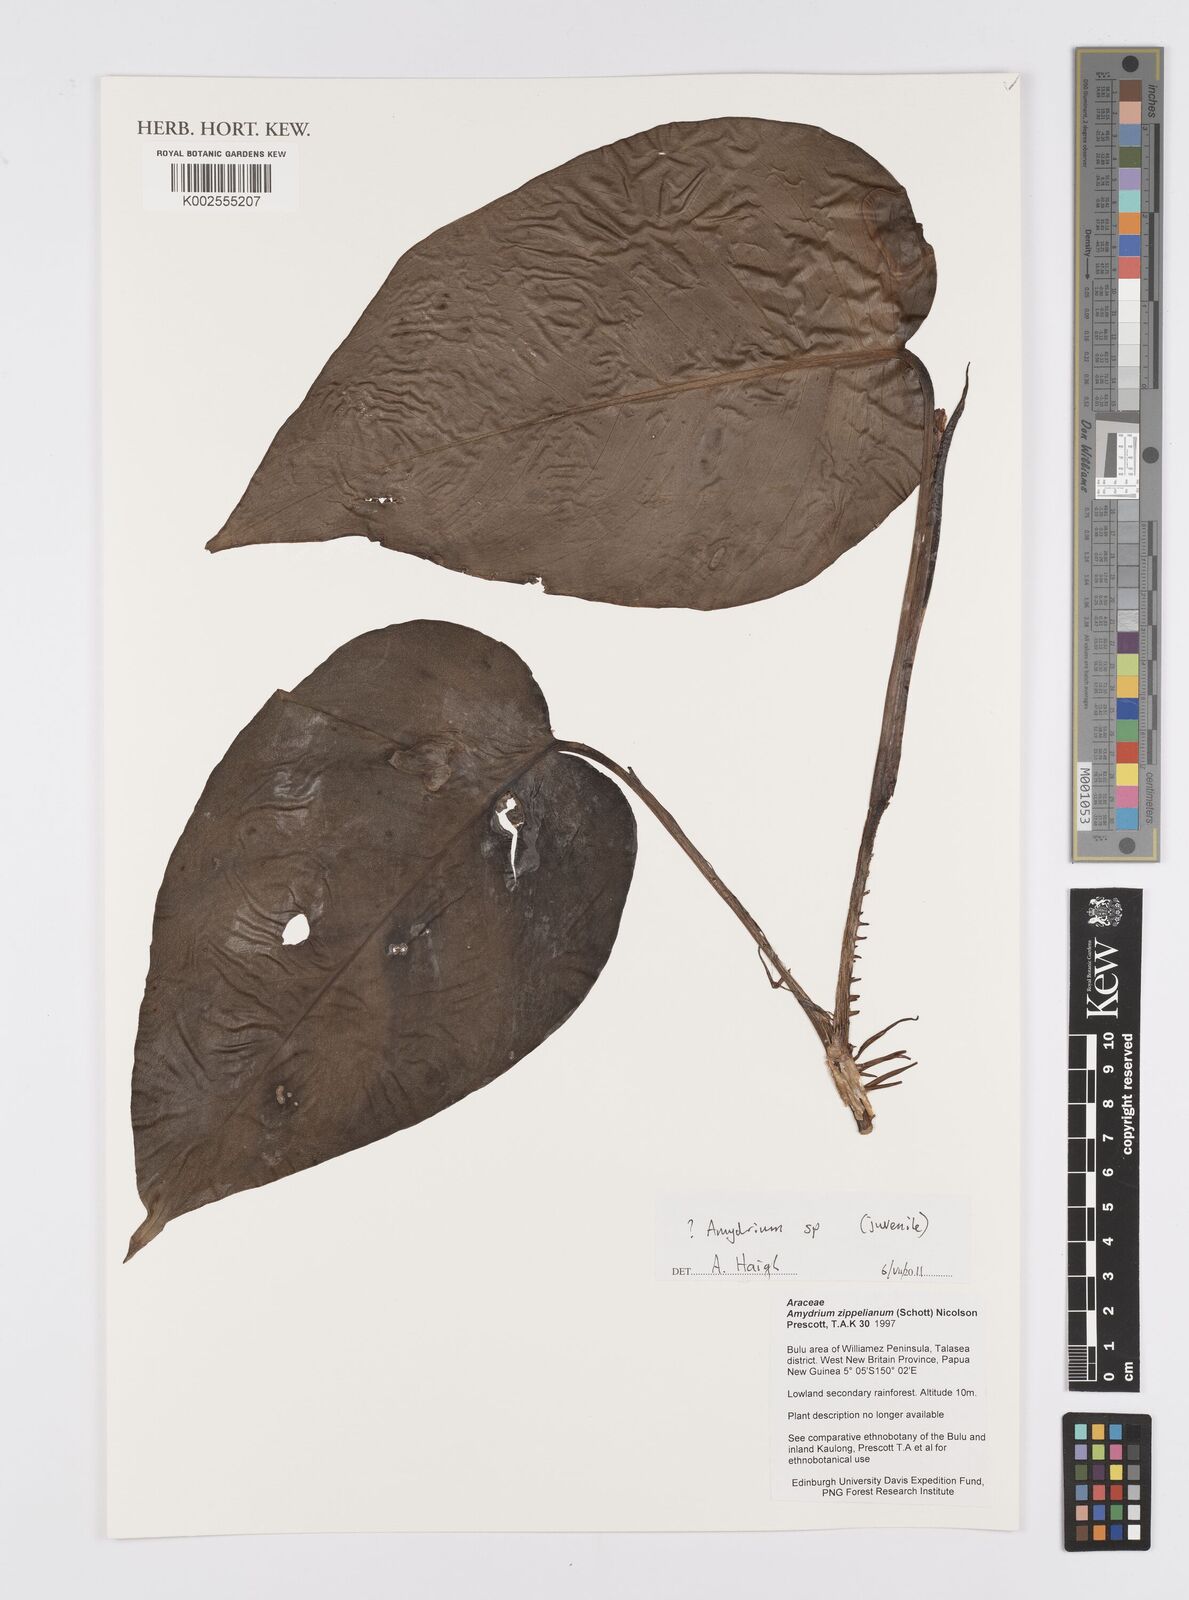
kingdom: Plantae
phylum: Tracheophyta
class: Liliopsida
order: Alismatales
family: Araceae
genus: Amydrium
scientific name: Amydrium
